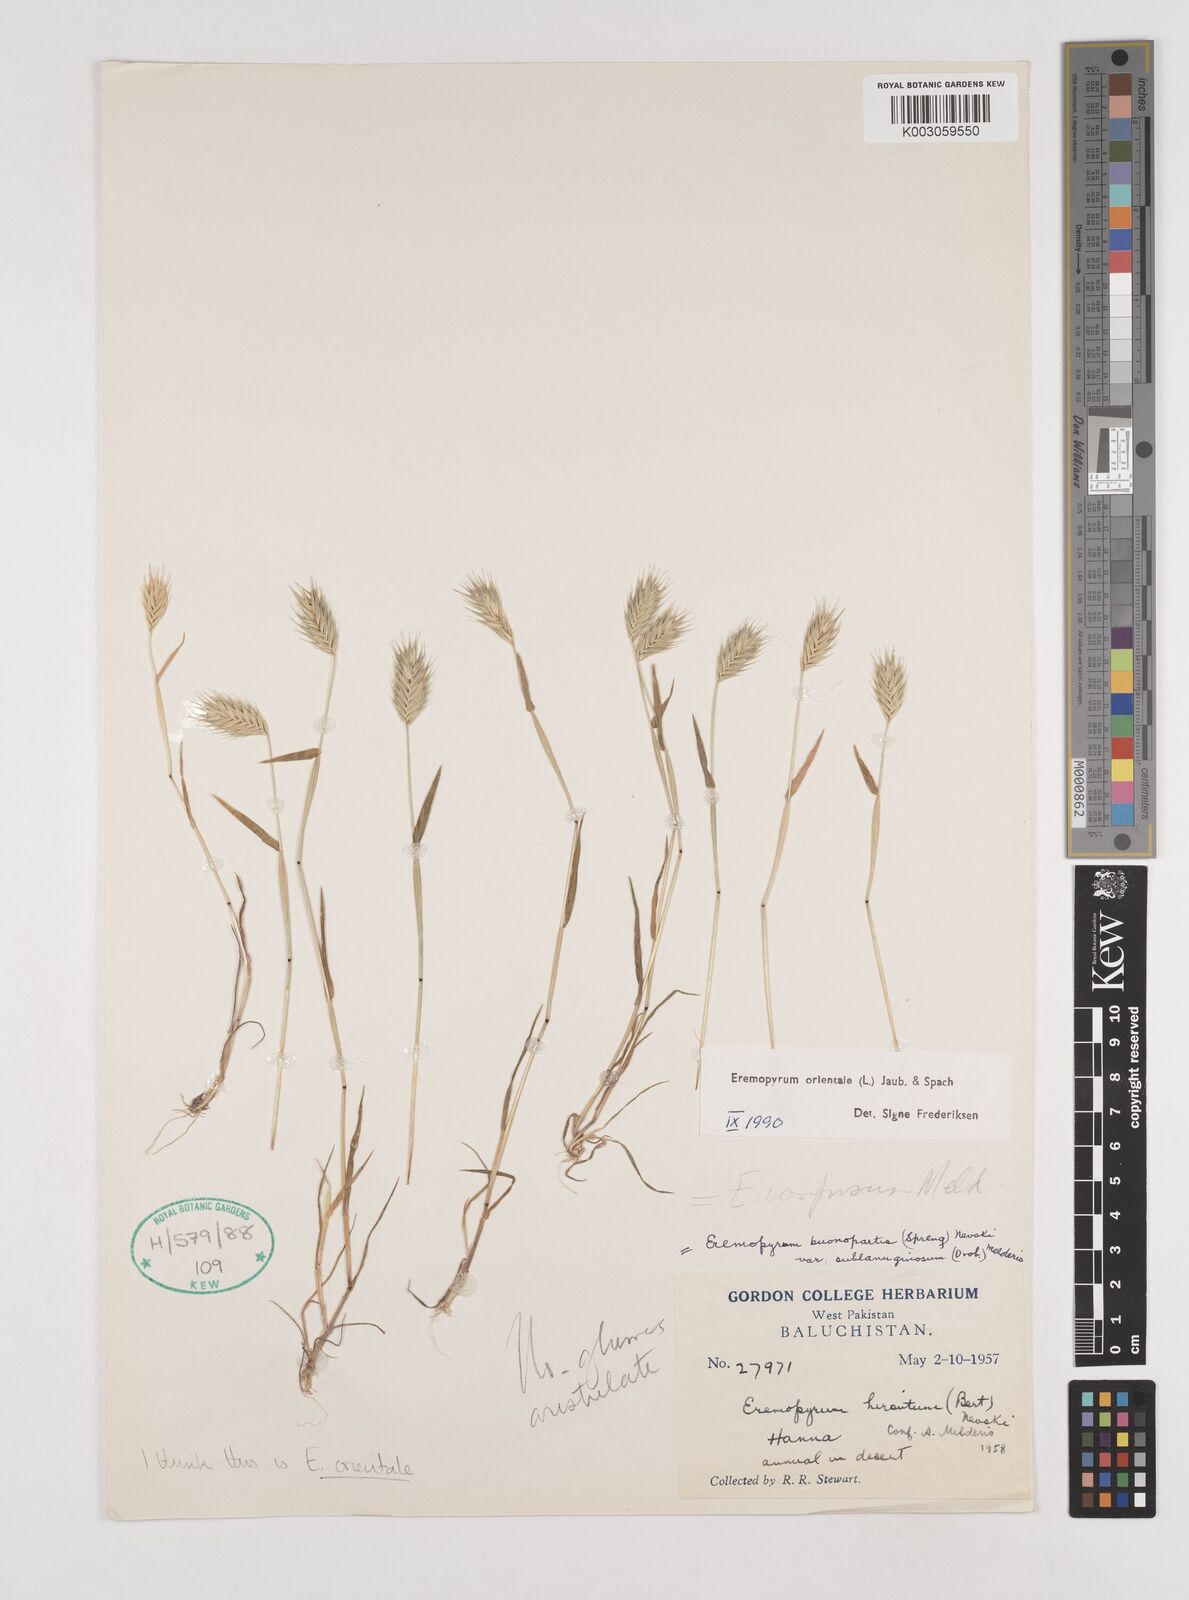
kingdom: Plantae
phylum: Tracheophyta
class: Liliopsida
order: Poales
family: Poaceae
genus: Eremopyrum
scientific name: Eremopyrum orientale
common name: Oriental false wheatgrass
